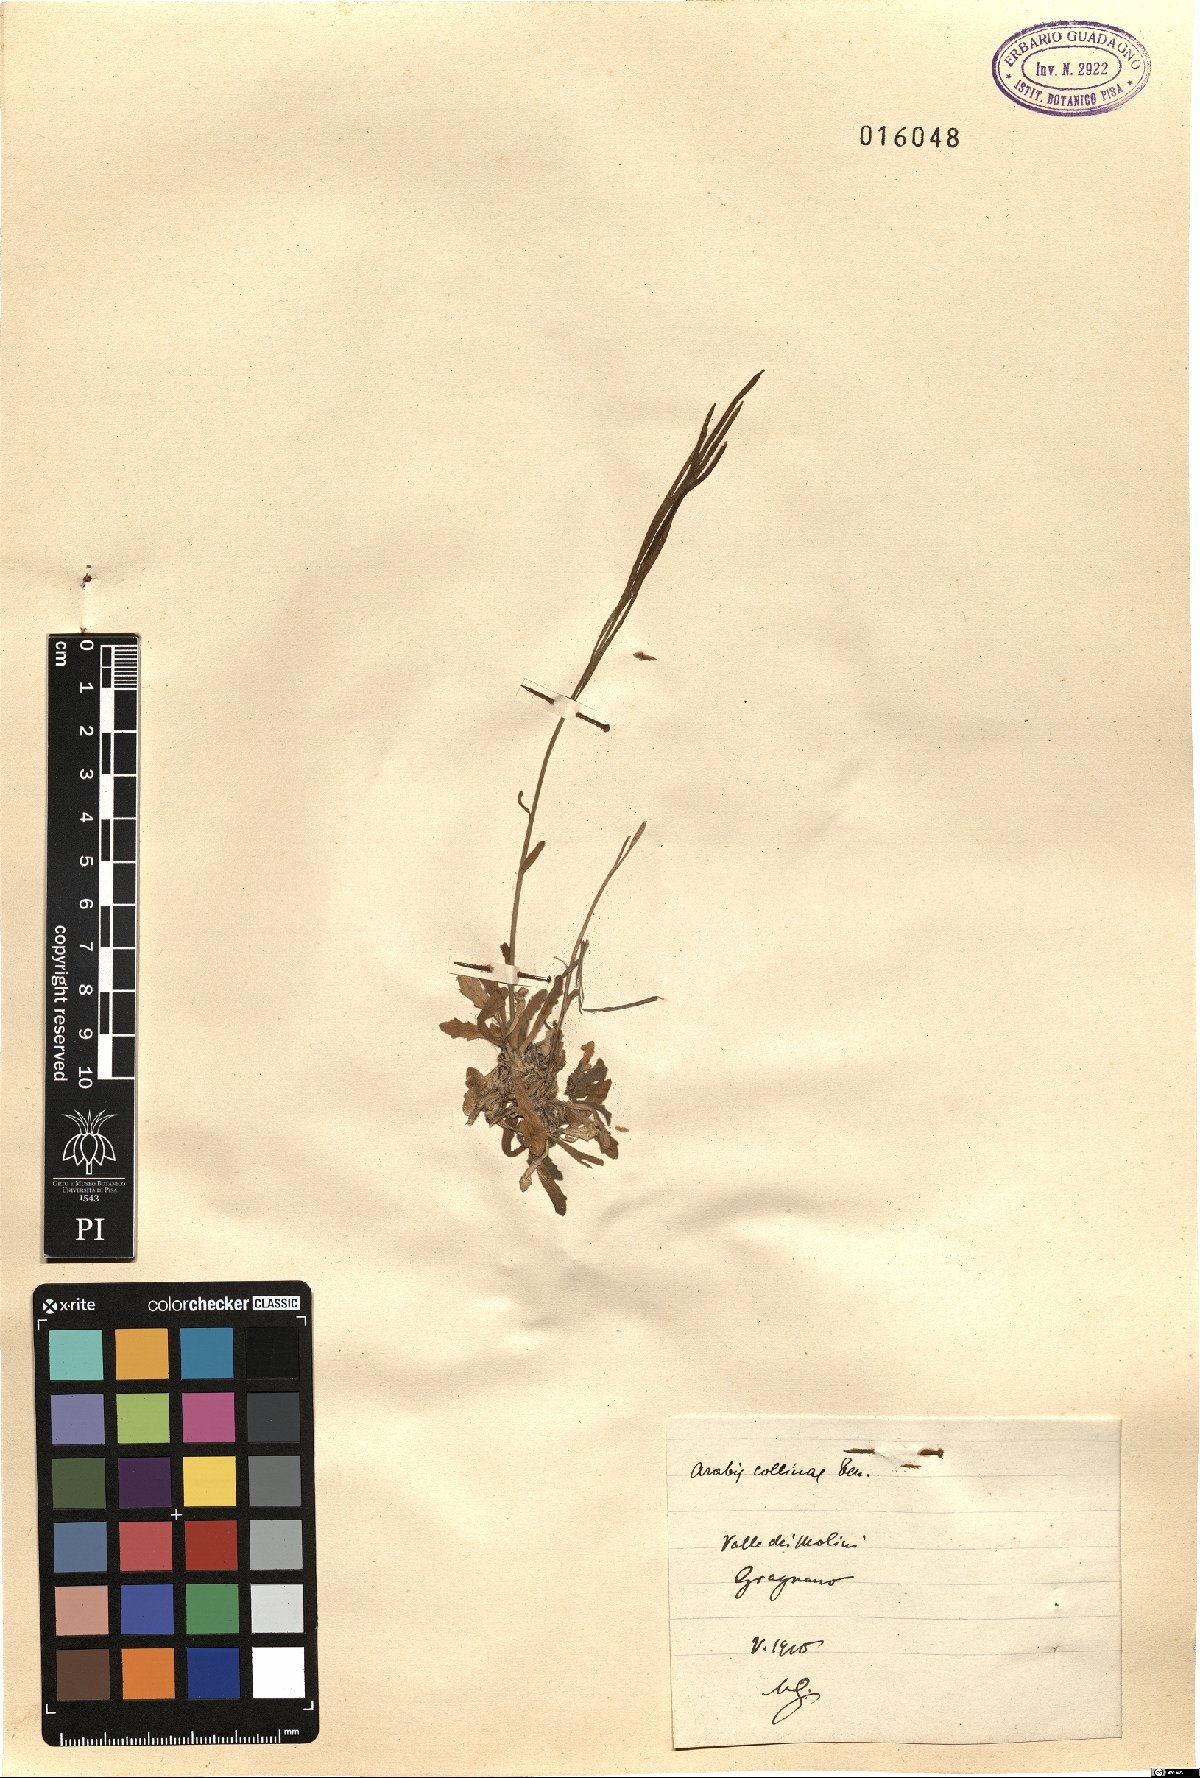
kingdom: Plantae
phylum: Tracheophyta
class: Magnoliopsida
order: Brassicales
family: Brassicaceae
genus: Arabis
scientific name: Arabis collina
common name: Rosy cress
